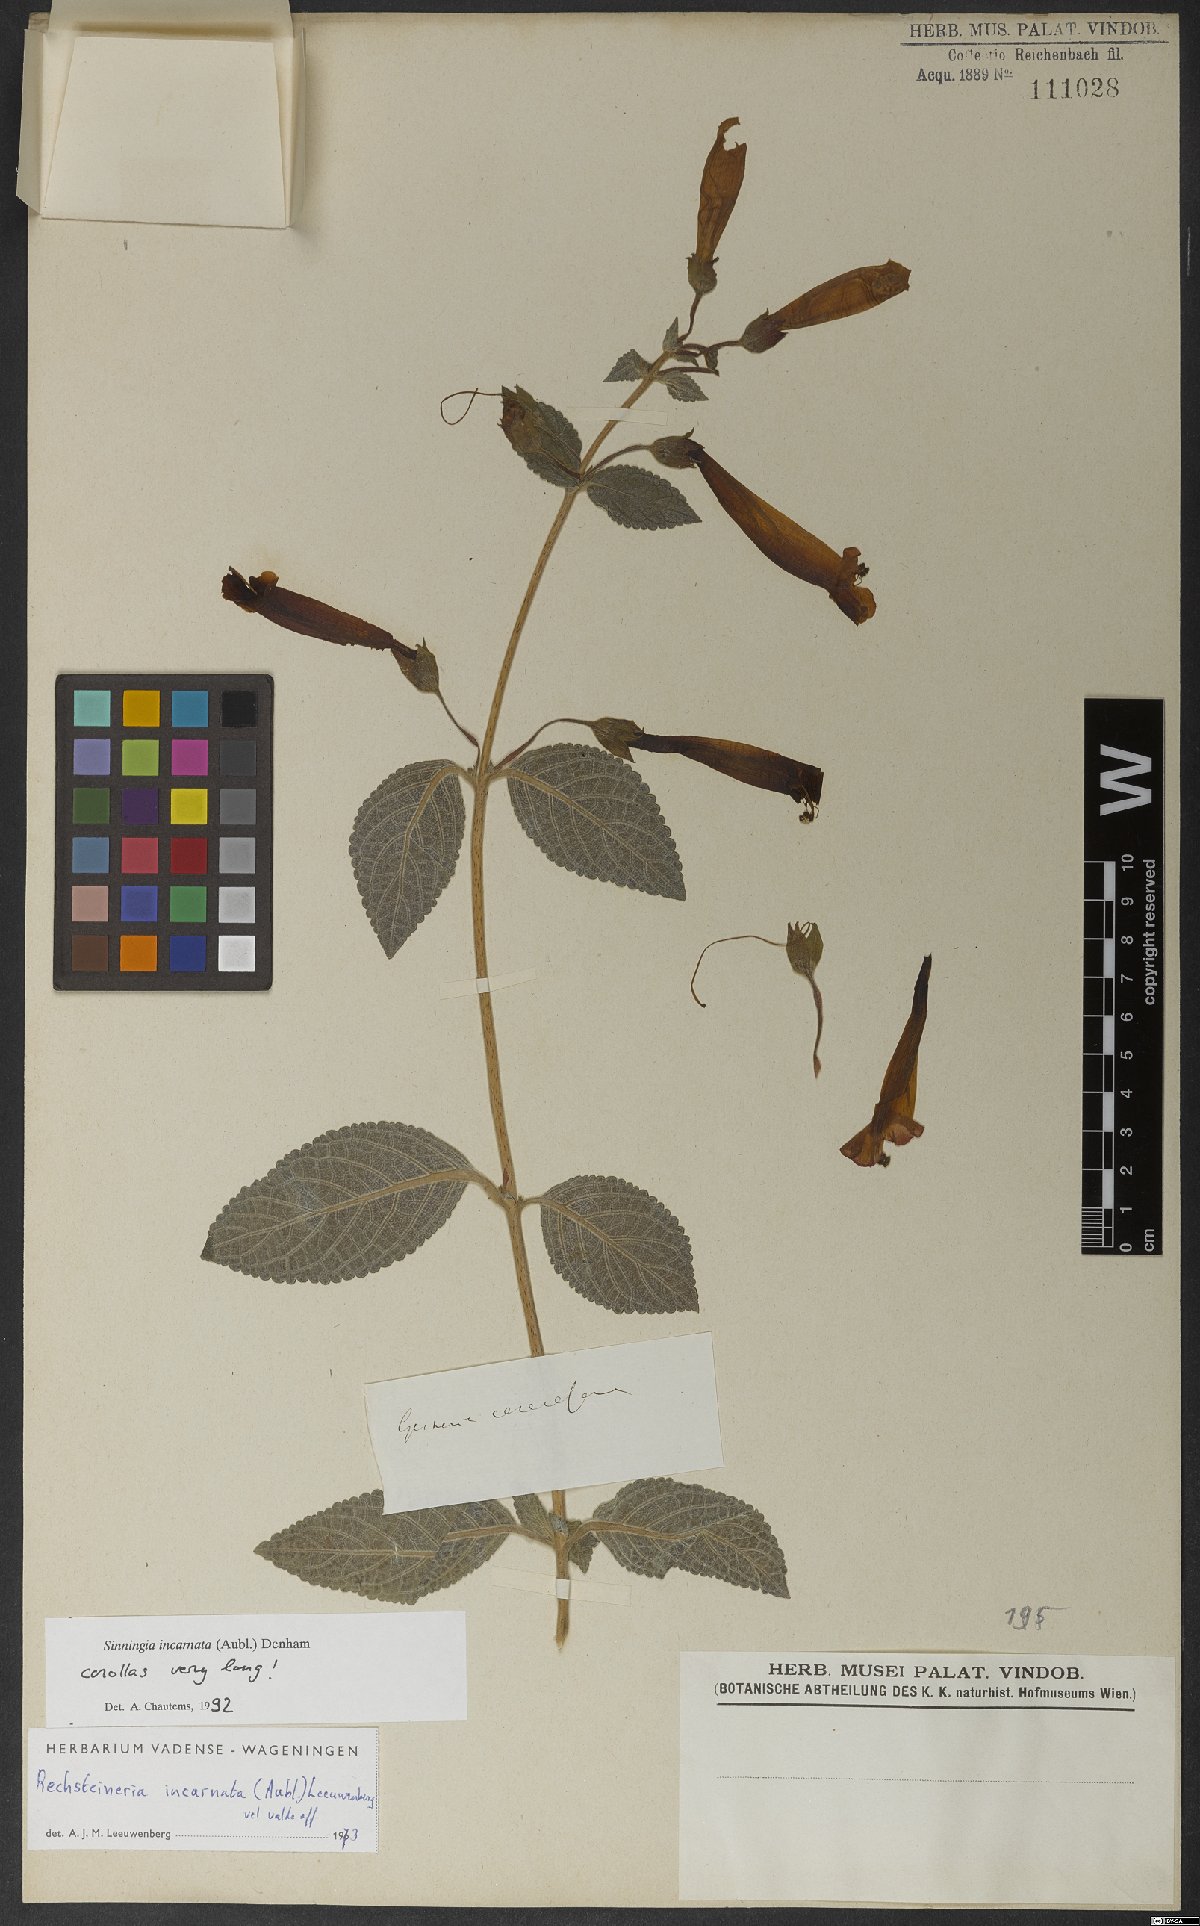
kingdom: Plantae
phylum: Tracheophyta
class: Magnoliopsida
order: Lamiales
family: Gesneriaceae
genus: Sinningia
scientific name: Sinningia incarnata
